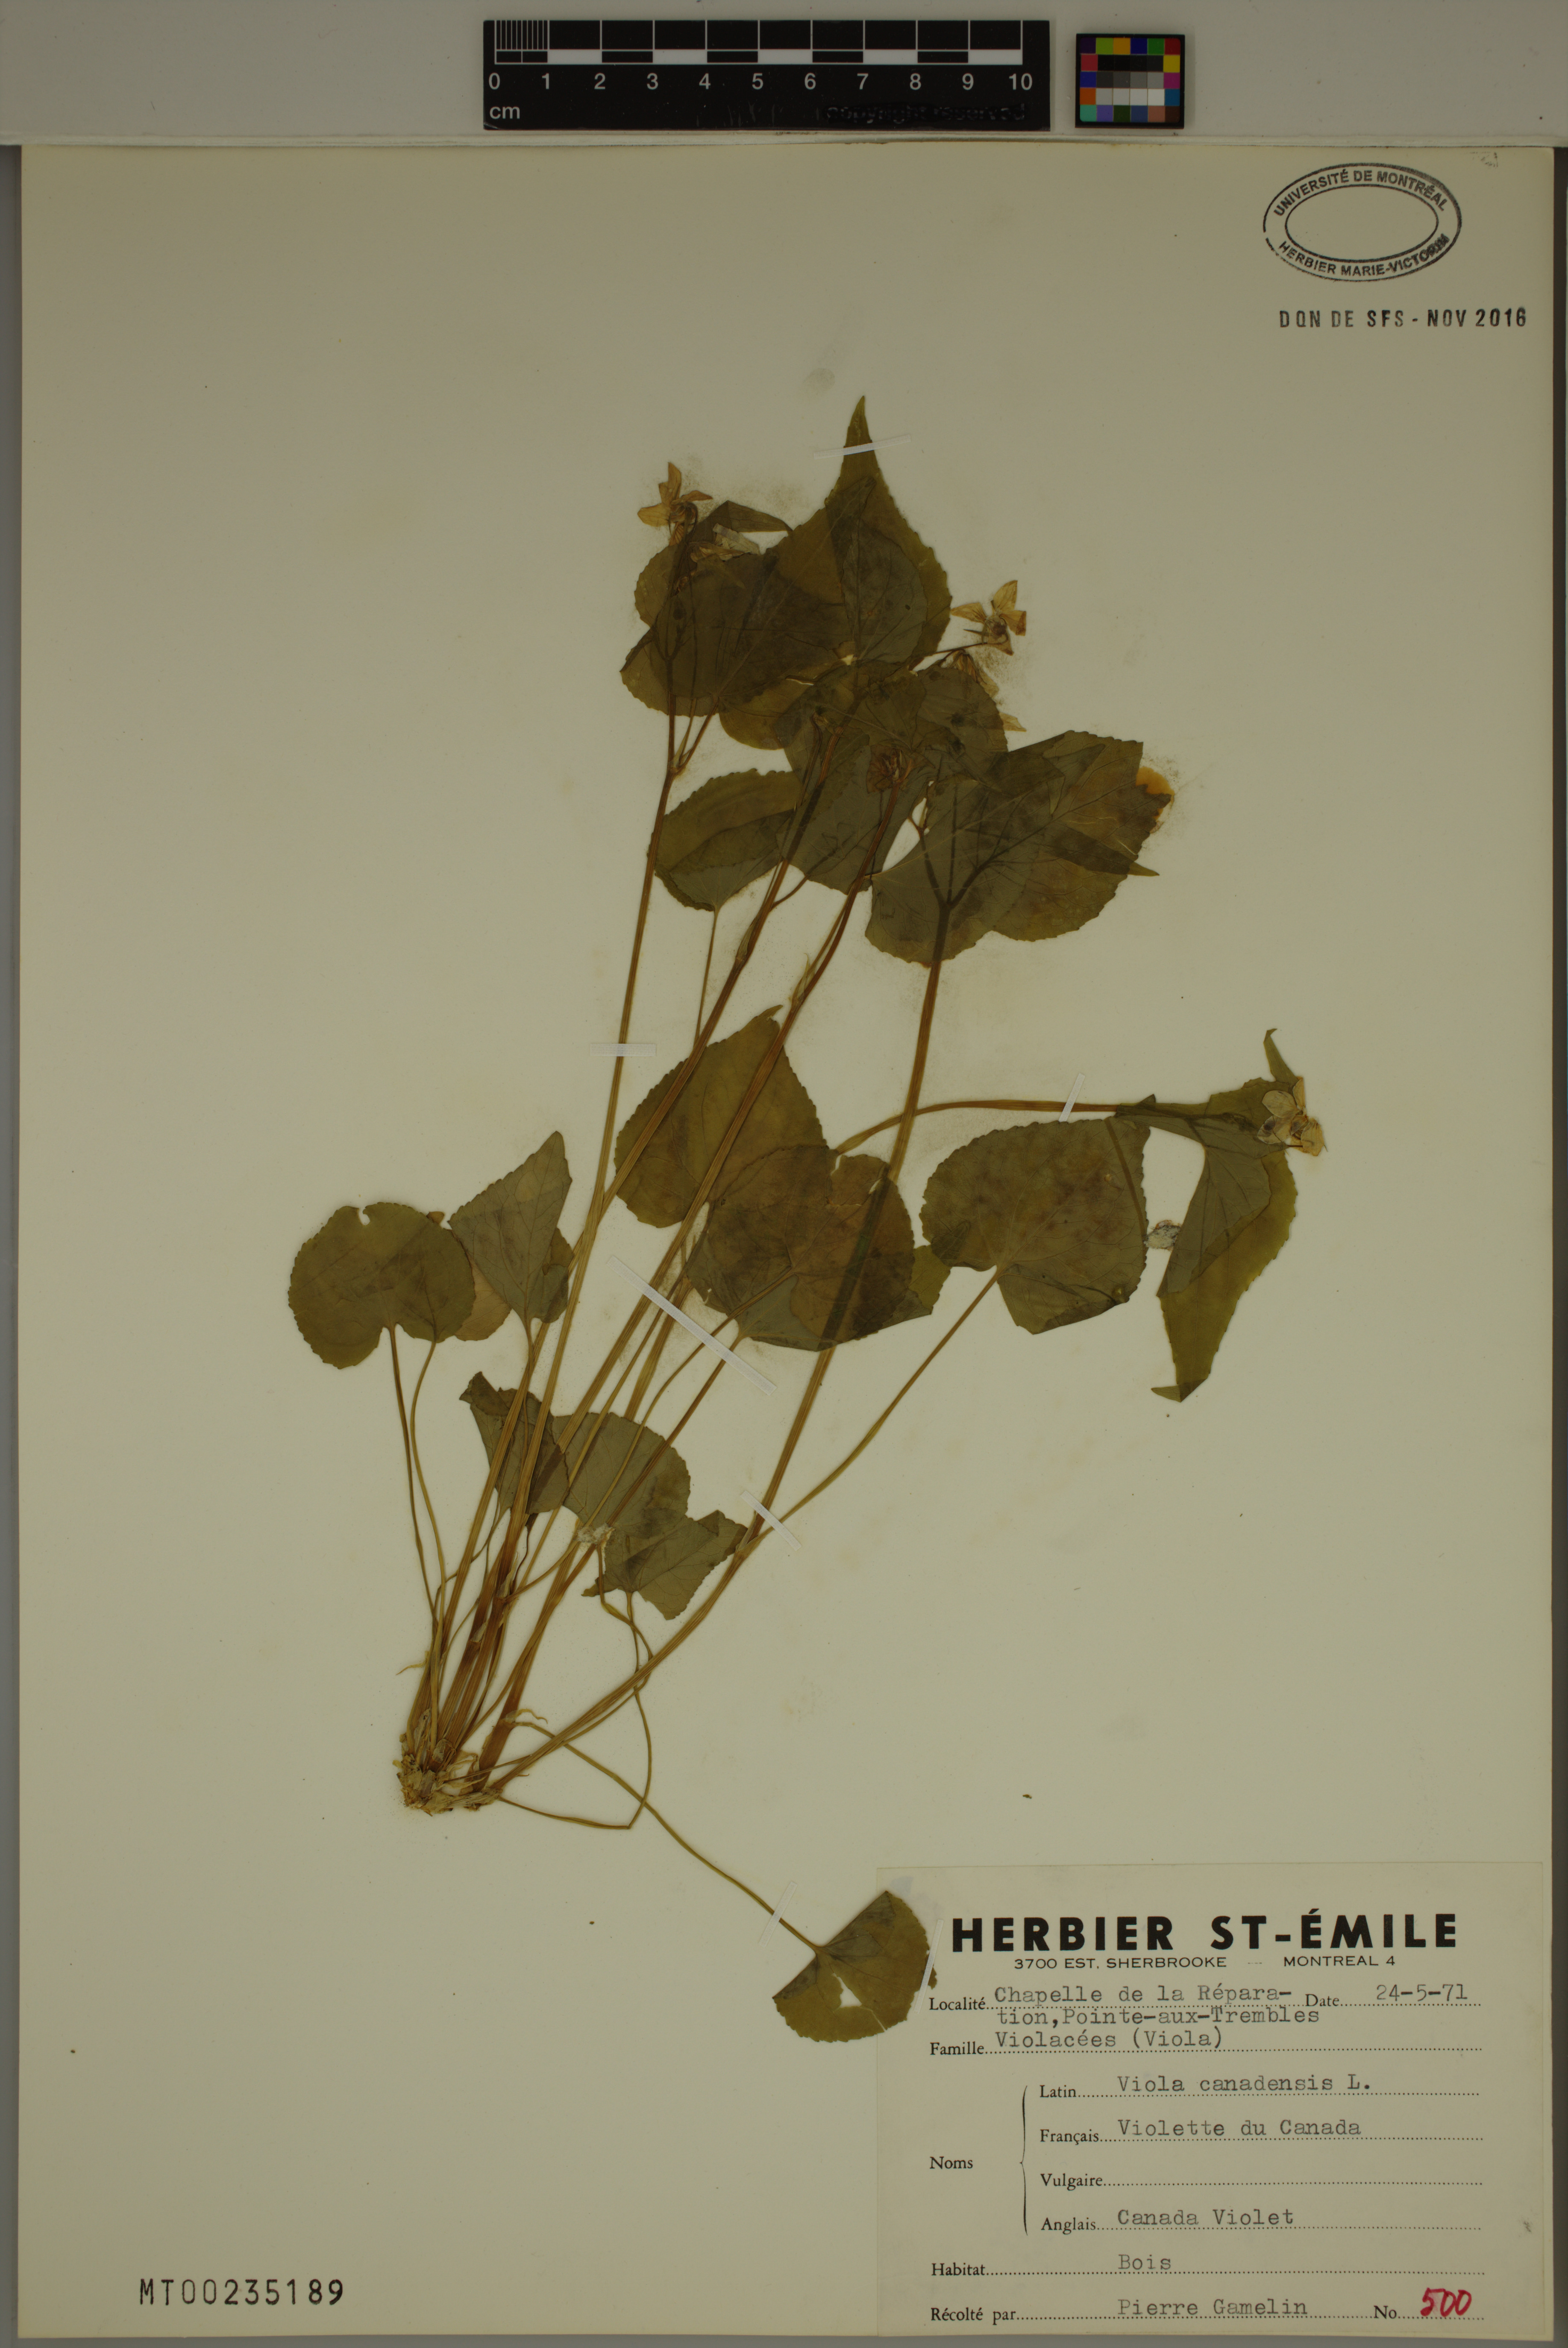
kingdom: Plantae
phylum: Tracheophyta
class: Magnoliopsida
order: Malpighiales
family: Violaceae
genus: Viola
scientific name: Viola canadensis
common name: Canada violet
